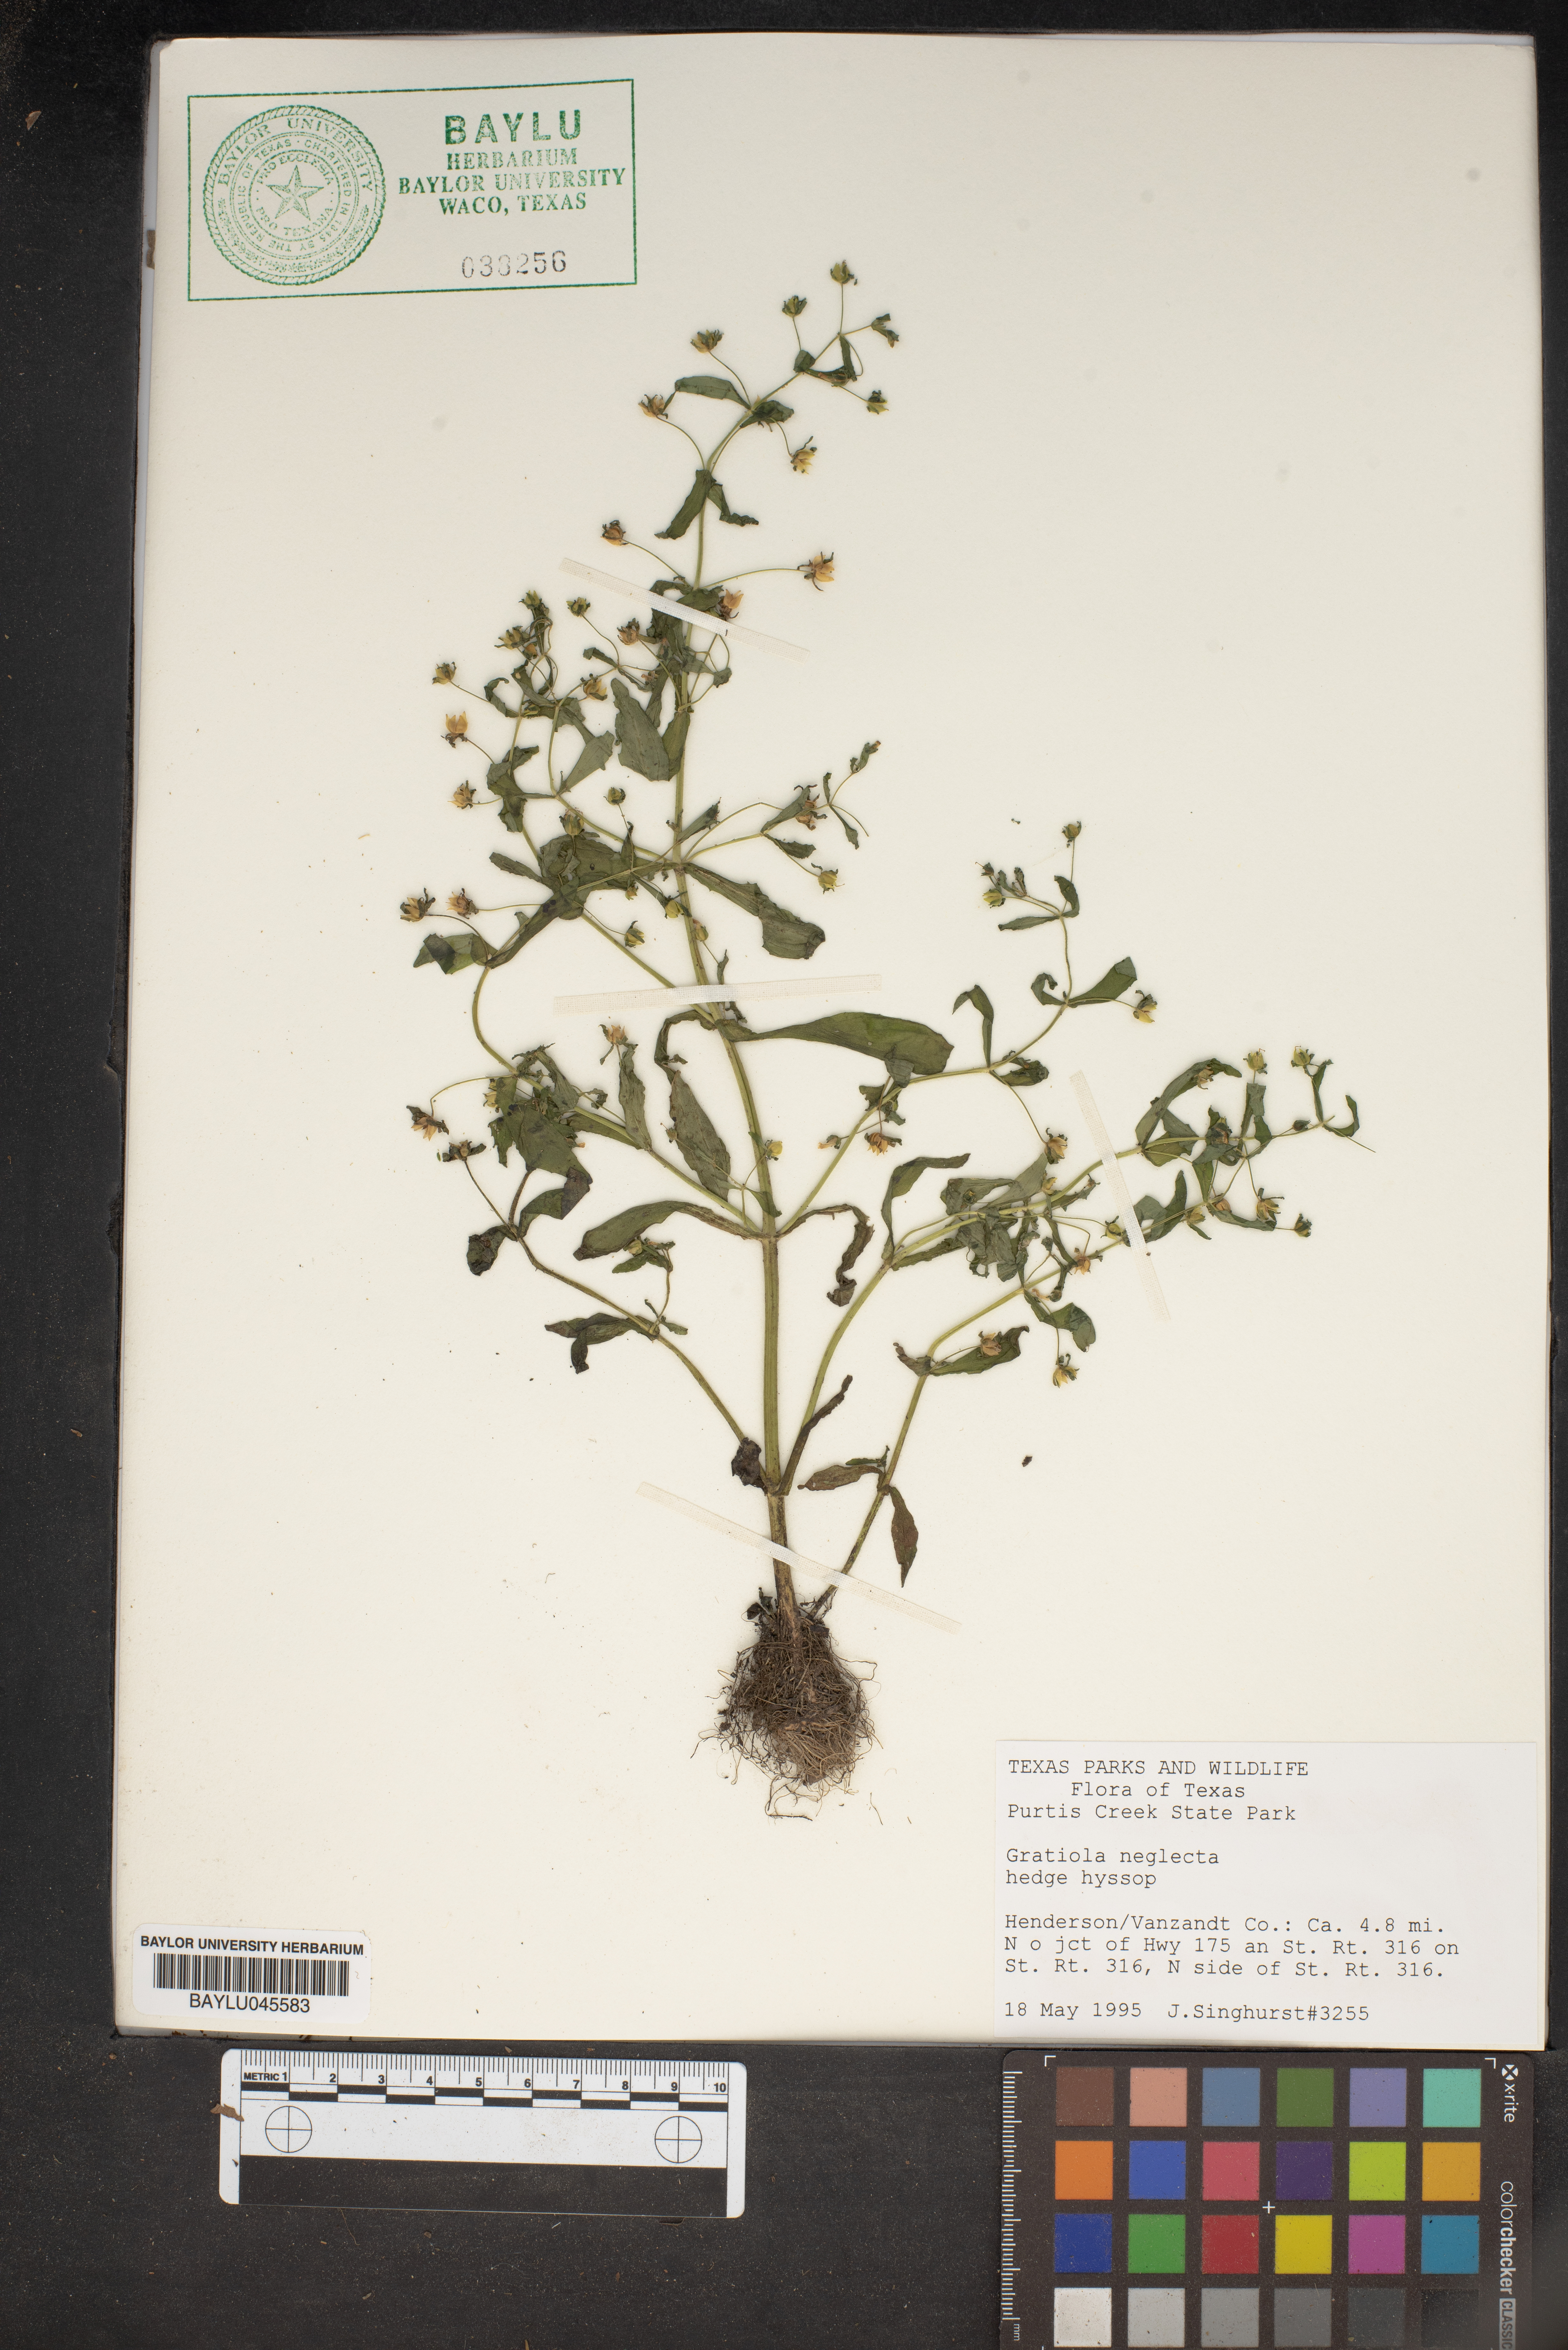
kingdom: Plantae
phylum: Tracheophyta
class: Magnoliopsida
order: Lamiales
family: Plantaginaceae
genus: Gratiola
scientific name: Gratiola neglecta
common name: American hedge-hyssop
